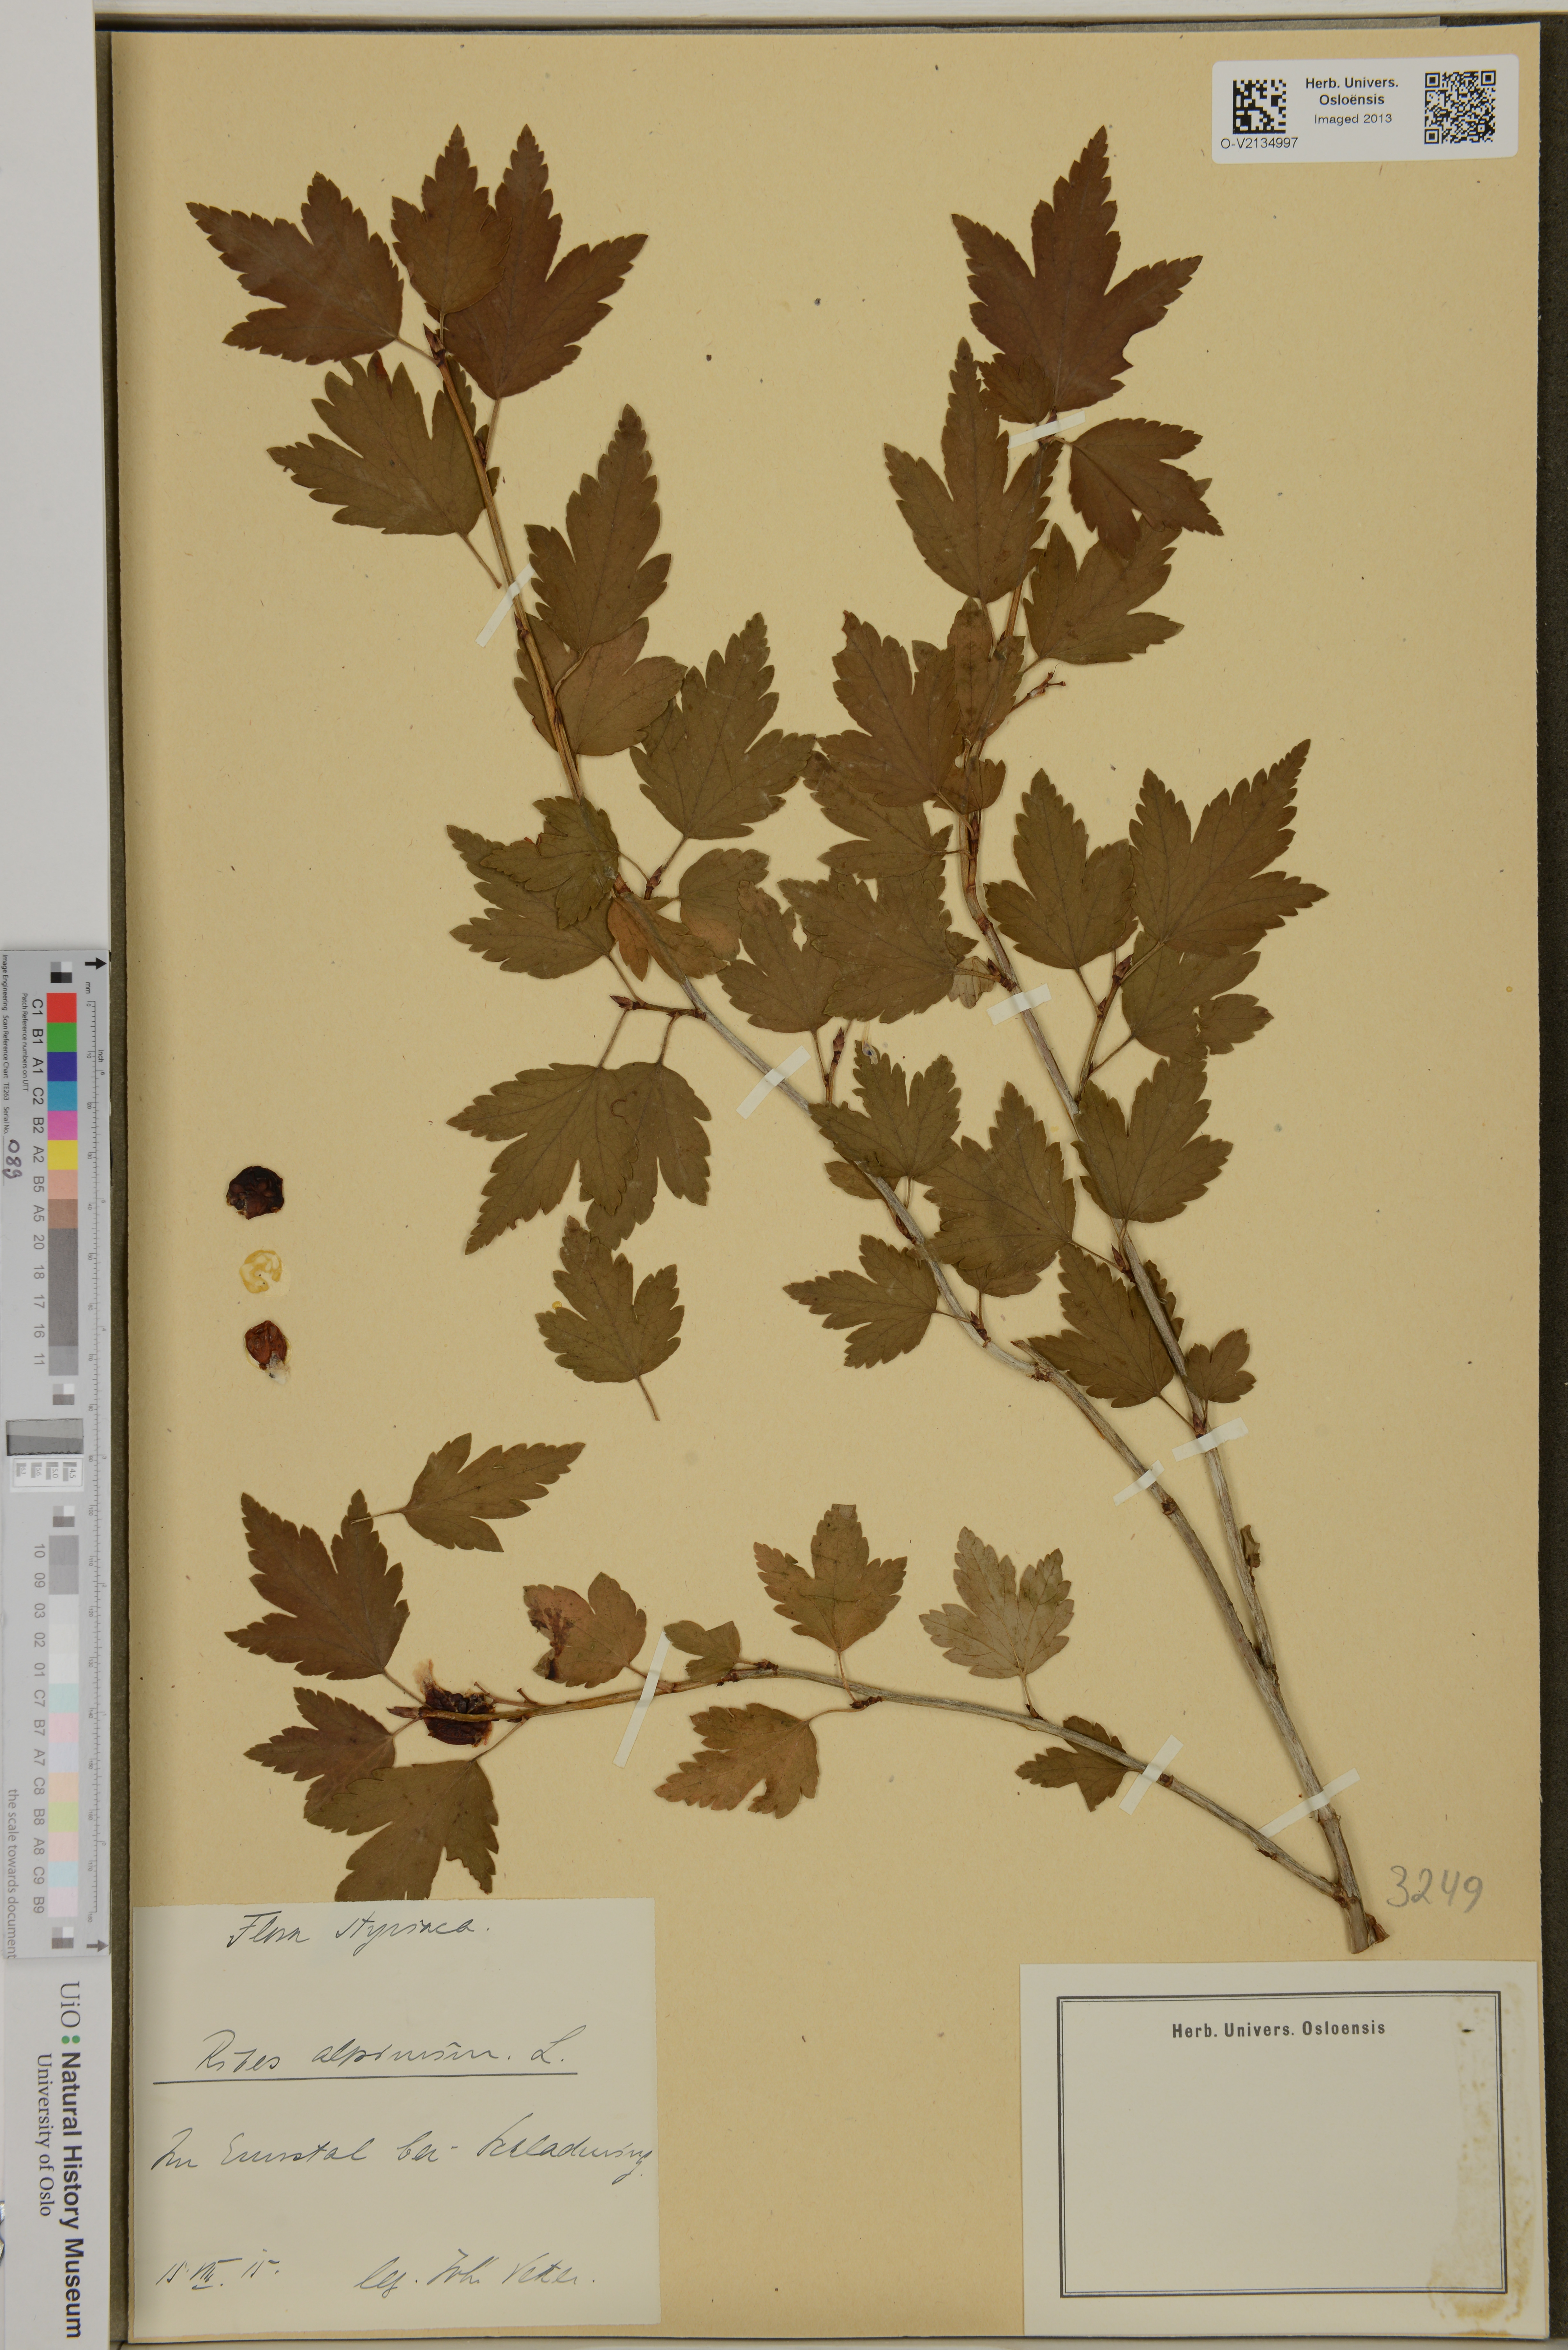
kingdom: Plantae
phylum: Tracheophyta
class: Magnoliopsida
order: Saxifragales
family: Grossulariaceae
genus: Ribes
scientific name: Ribes alpinum
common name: Alpine currant
